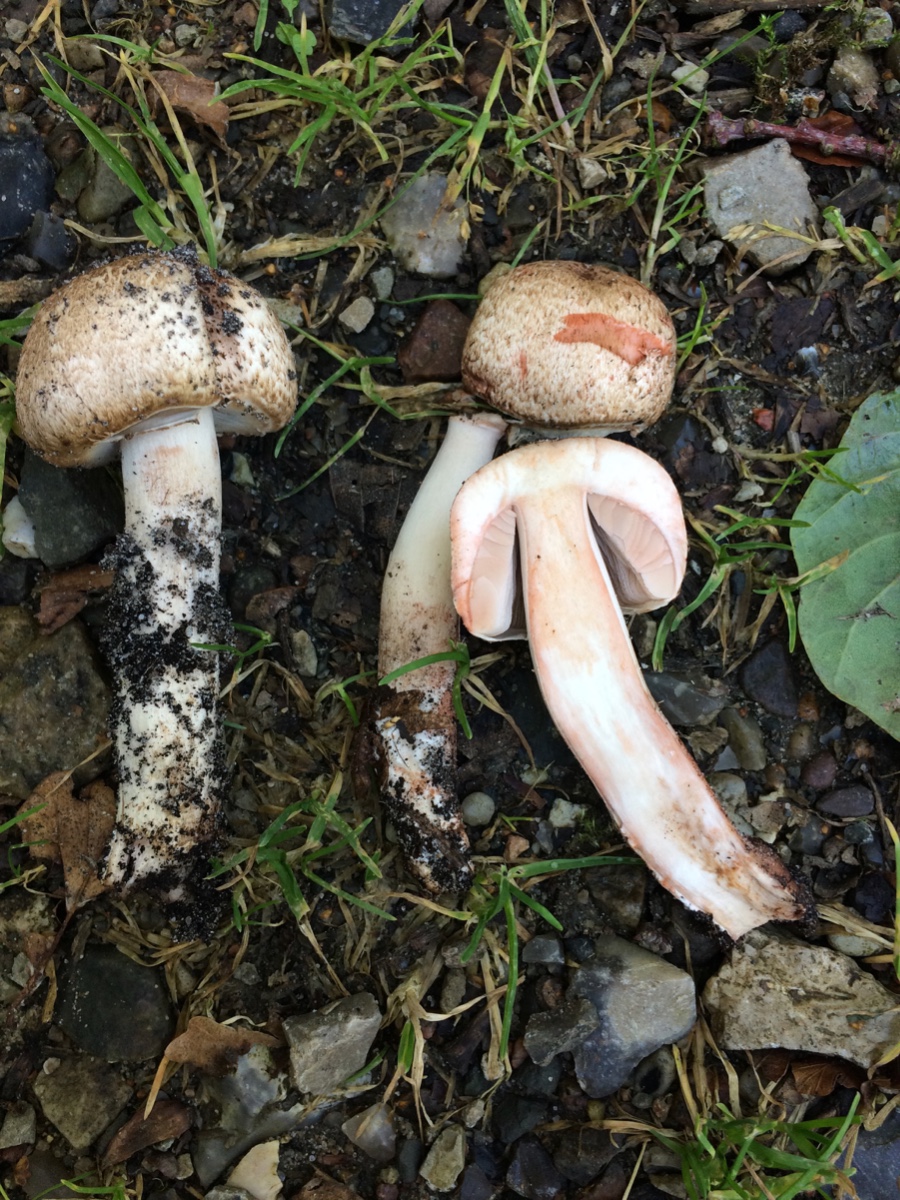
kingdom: Fungi
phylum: Basidiomycota
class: Agaricomycetes
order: Agaricales
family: Agaricaceae
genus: Agaricus
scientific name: Agaricus langei
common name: stor blod-champignon
